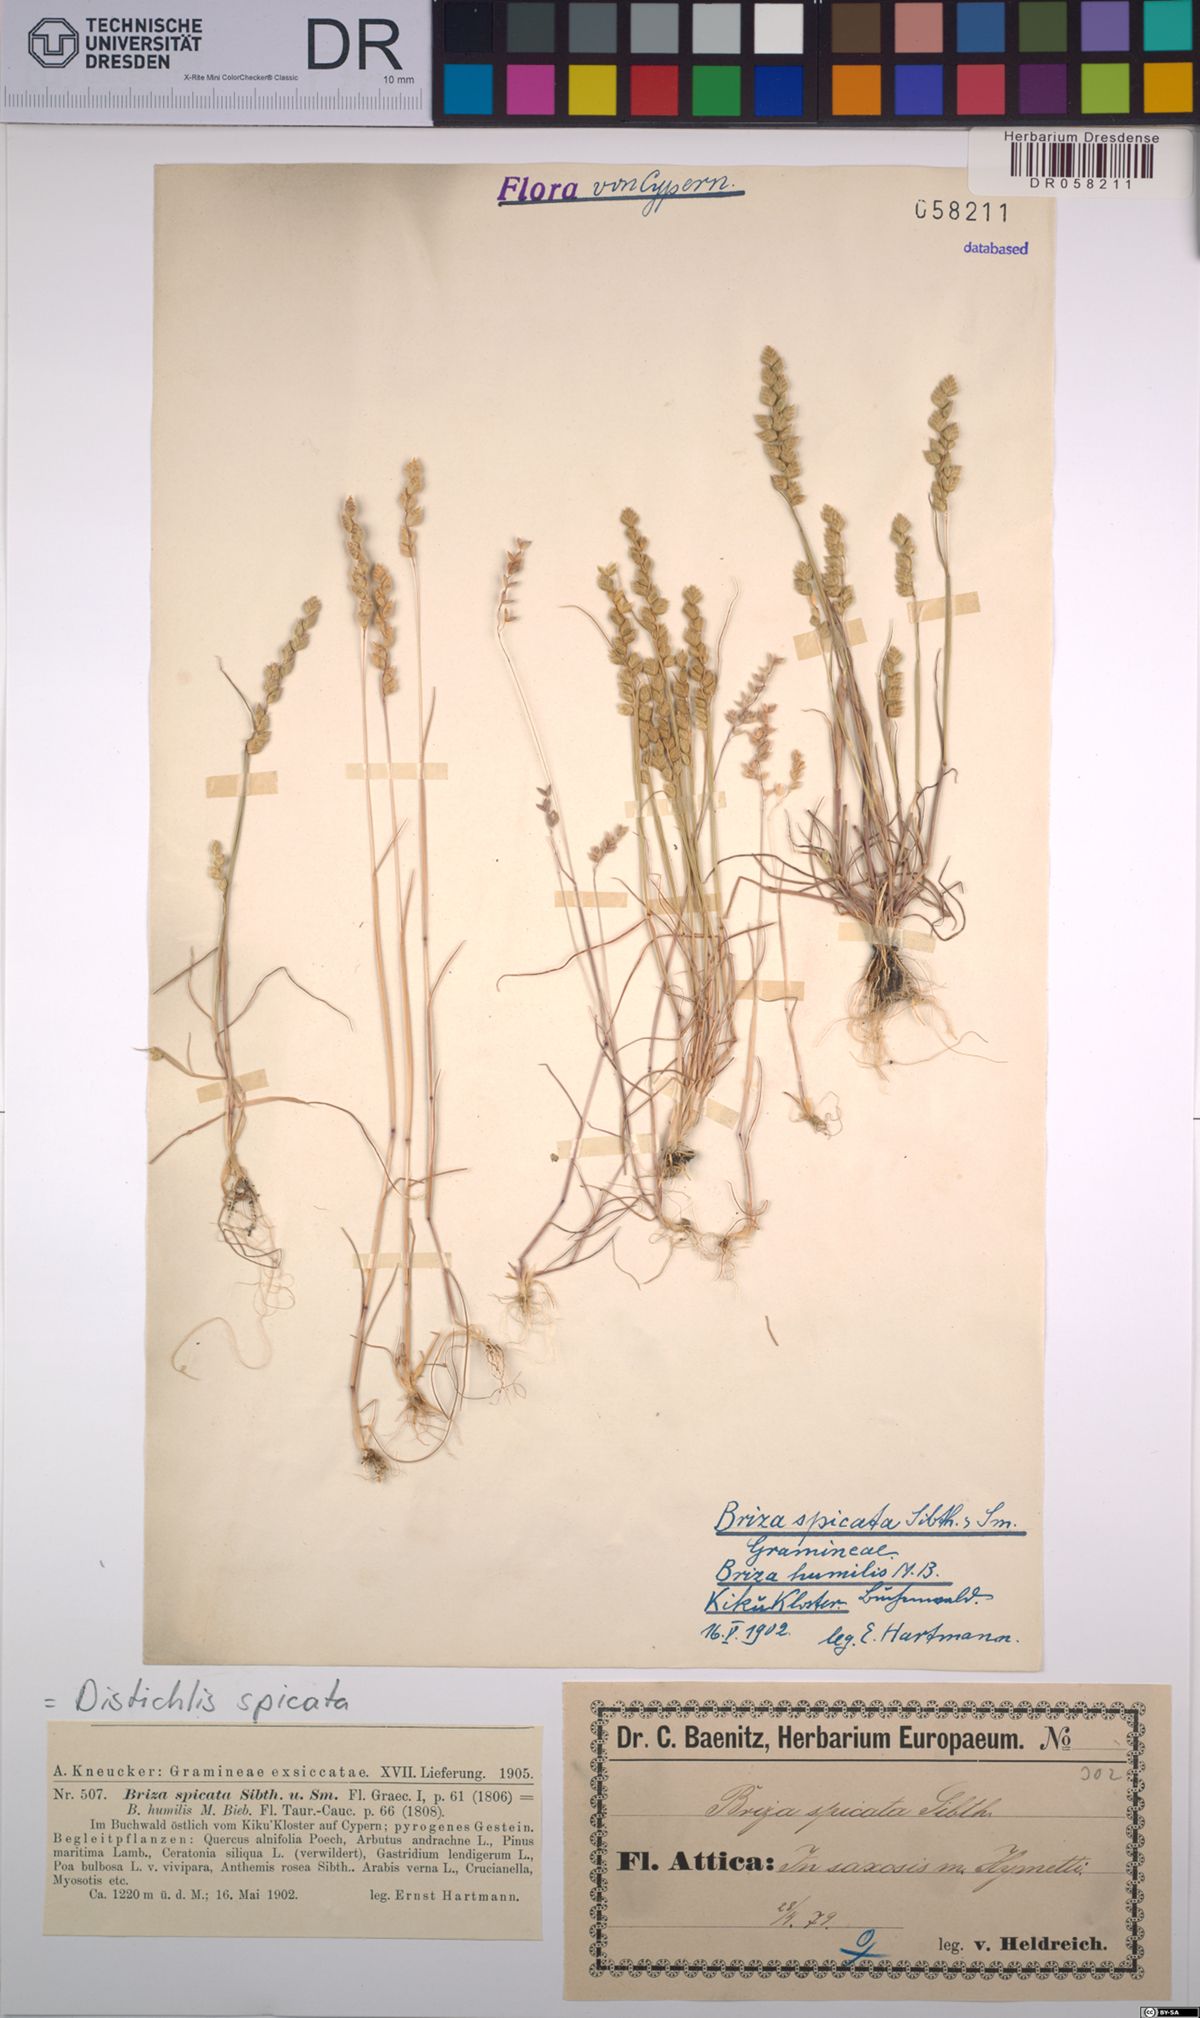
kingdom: Plantae
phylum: Tracheophyta
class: Liliopsida
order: Poales
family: Poaceae
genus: Distichlis
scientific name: Distichlis spicata
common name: Saltgrass
